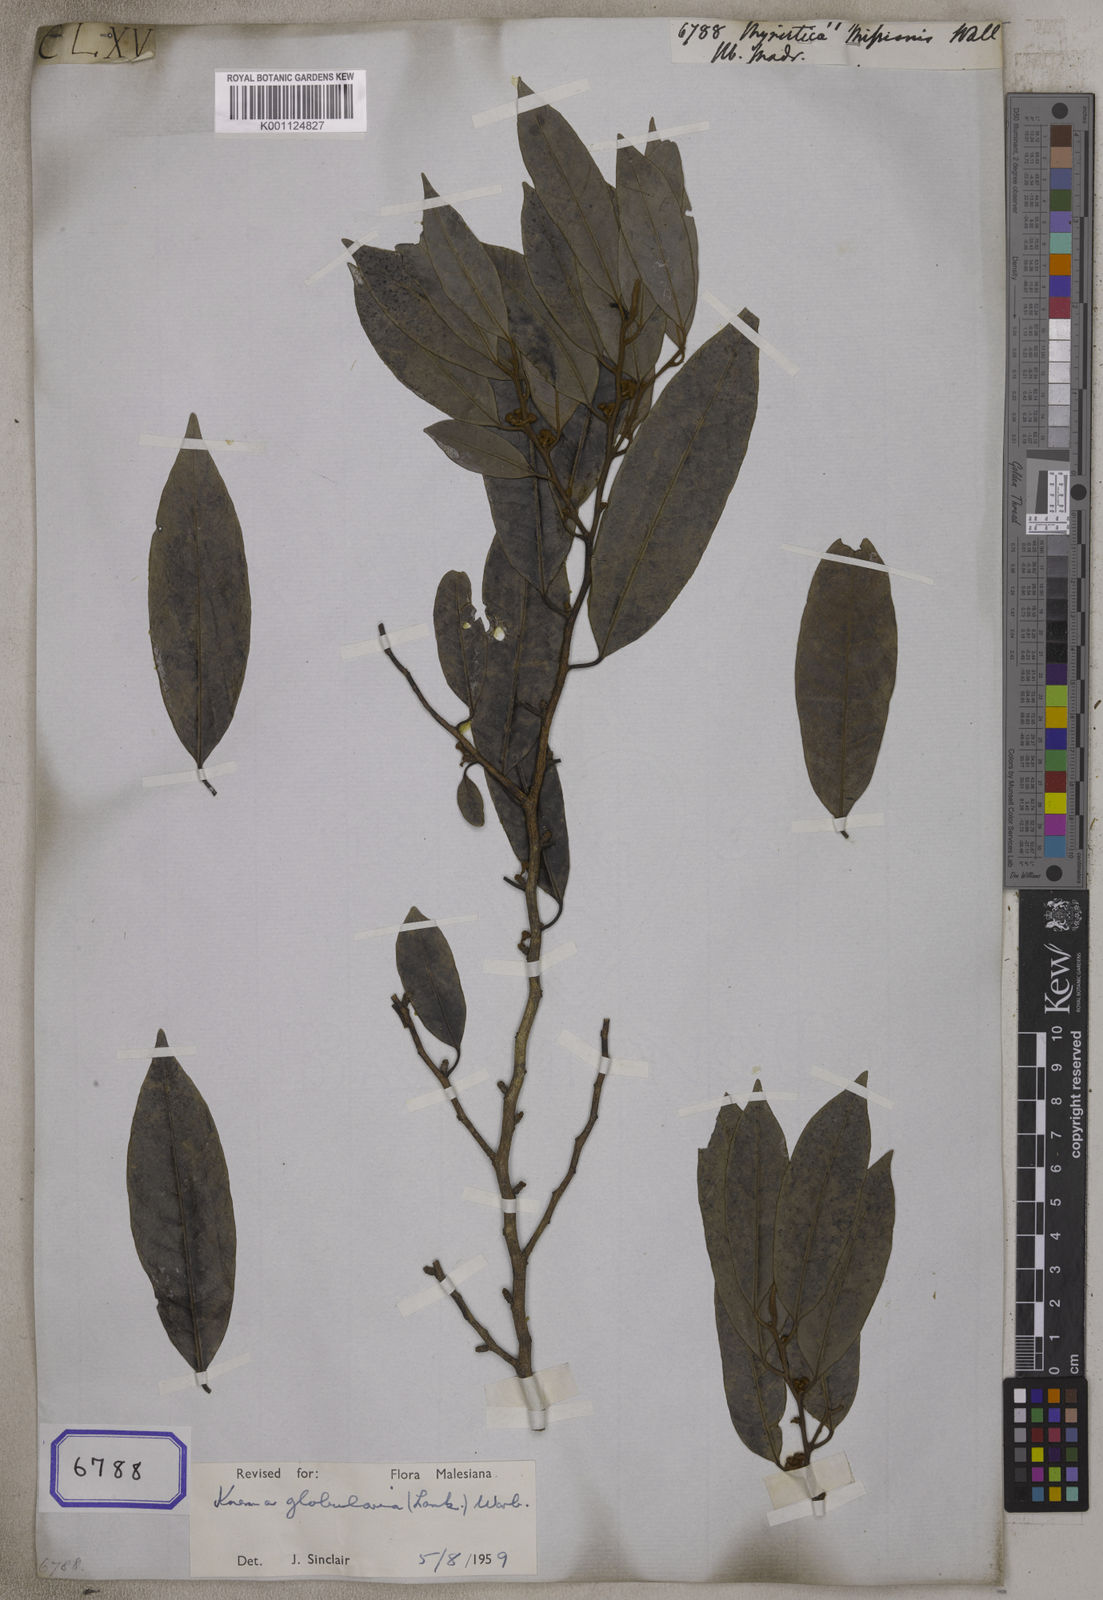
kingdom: Plantae
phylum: Tracheophyta
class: Magnoliopsida
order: Magnoliales
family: Myristicaceae
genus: Knema
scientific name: Knema globularia
